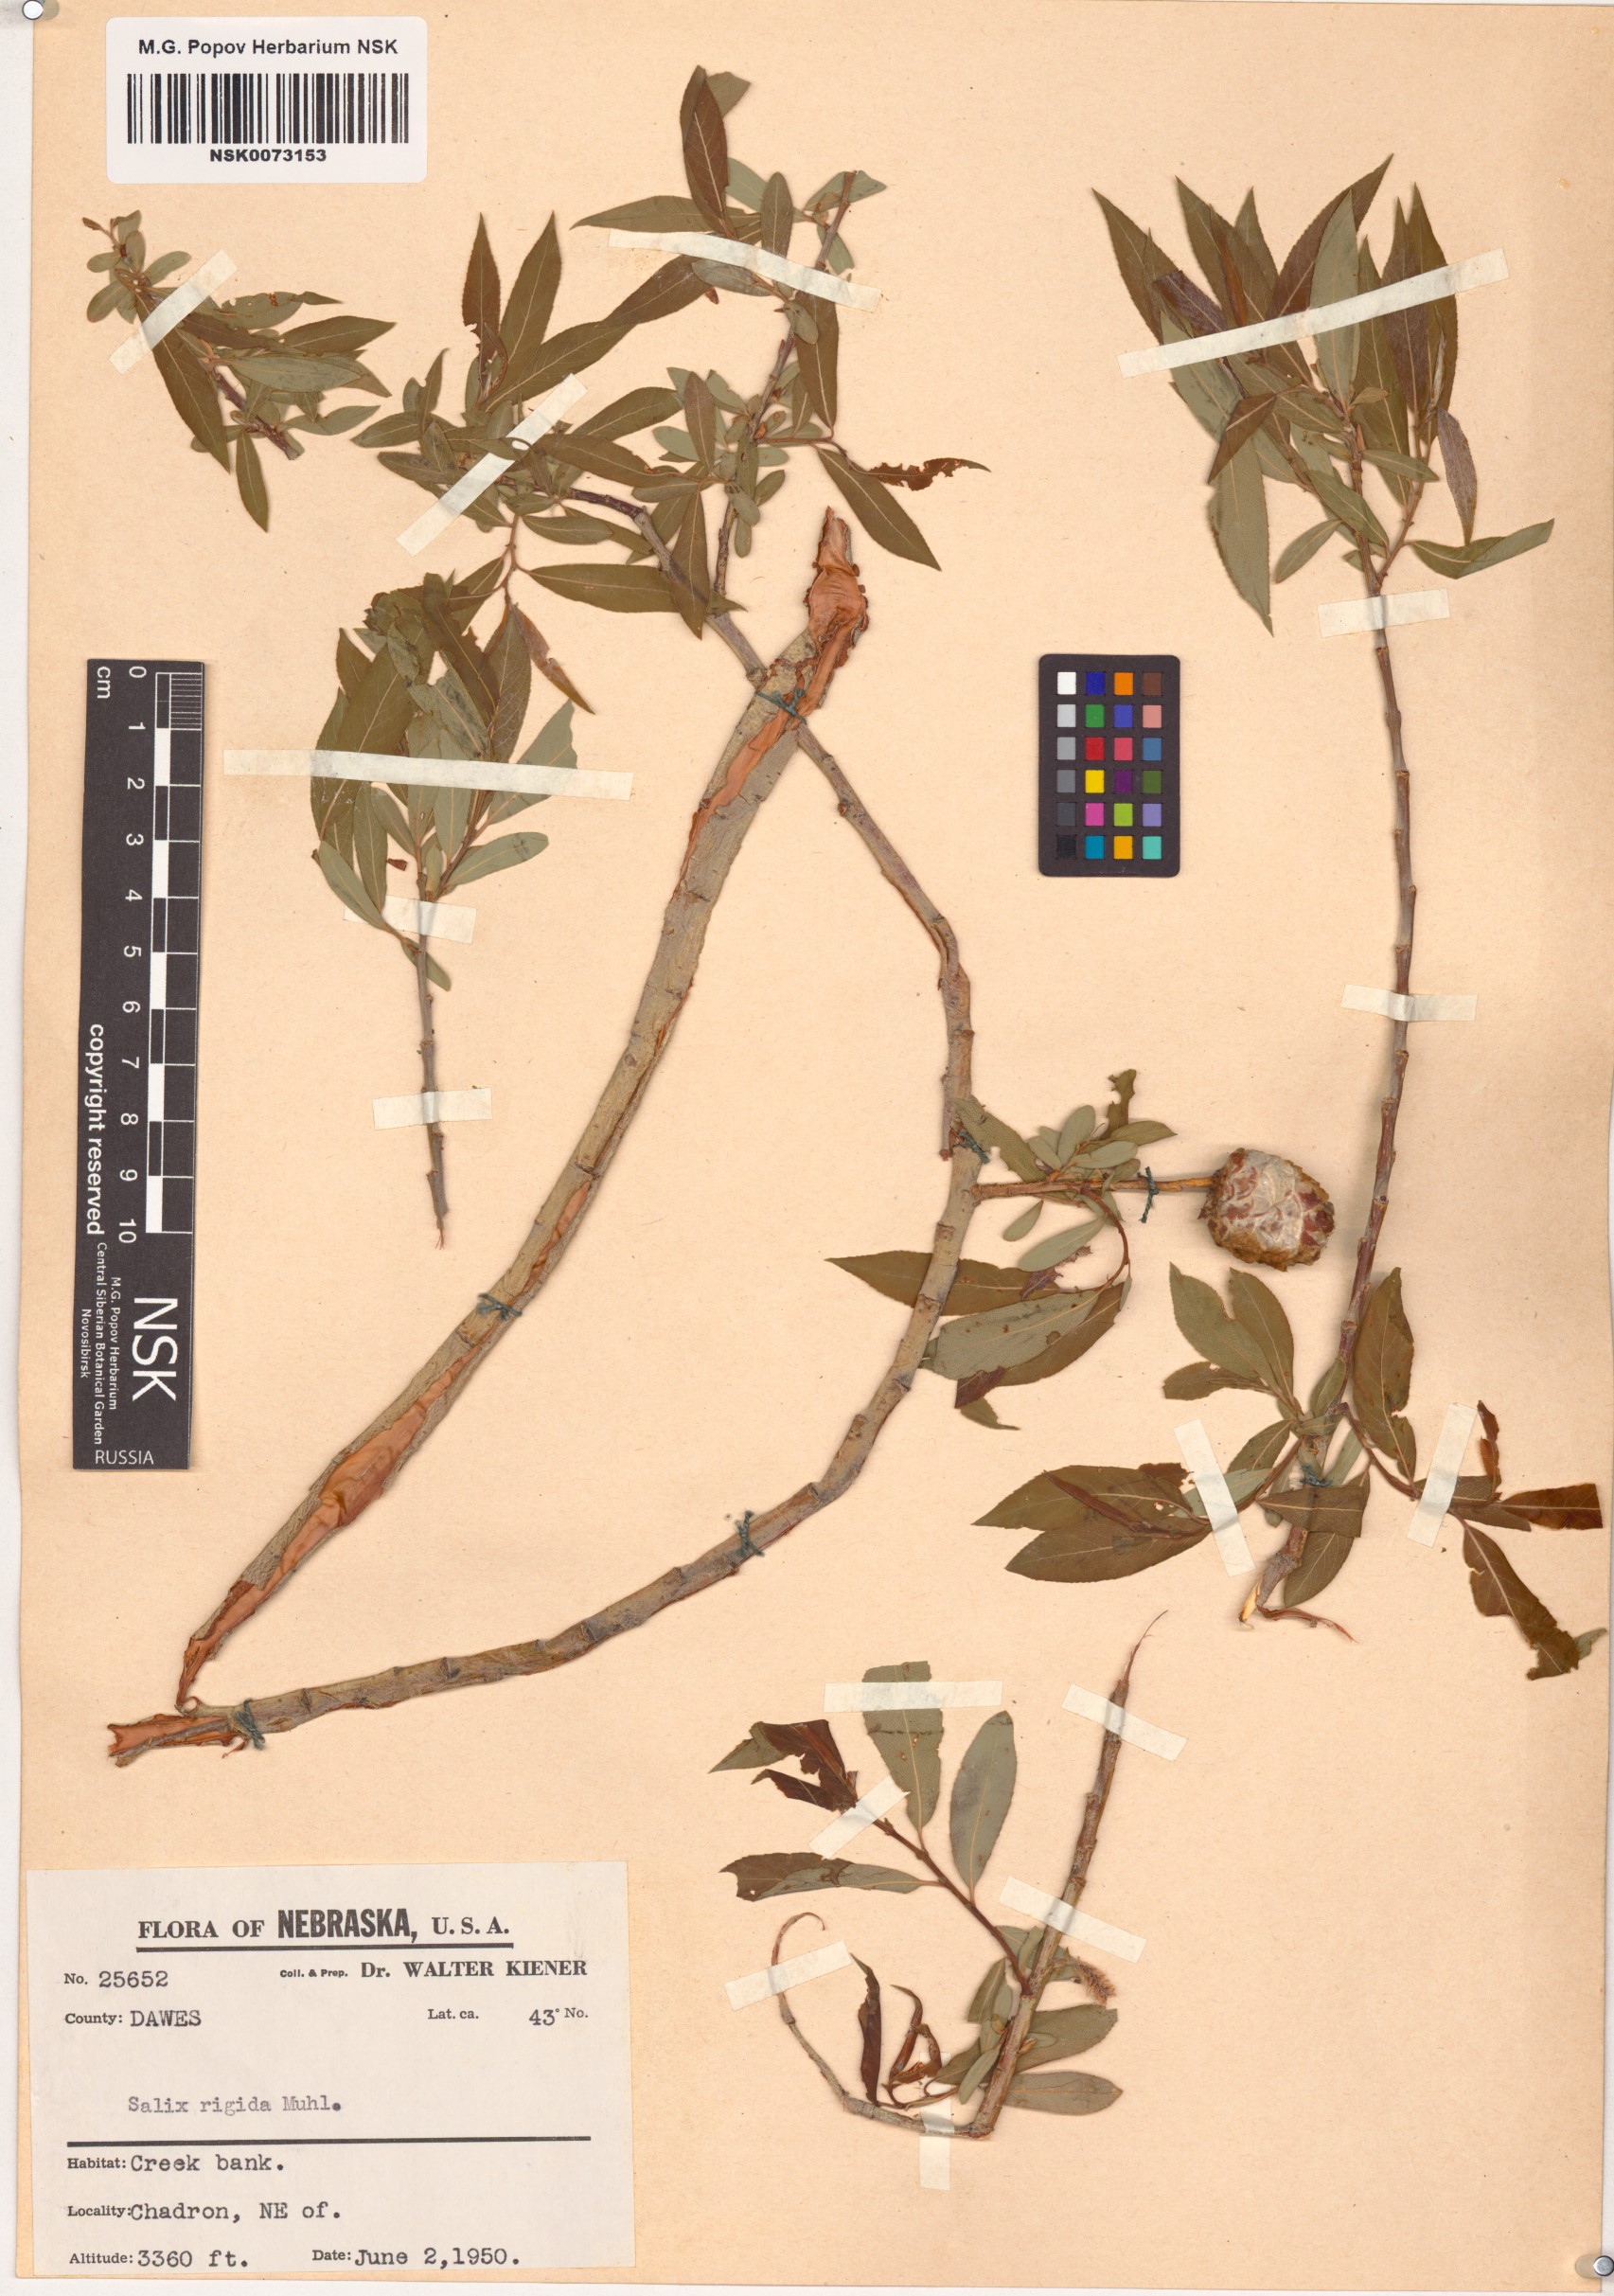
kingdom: Plantae
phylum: Tracheophyta
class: Magnoliopsida
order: Malpighiales
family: Salicaceae
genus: Salix
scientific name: Salix eriocephala
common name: Heart-leaved willow
